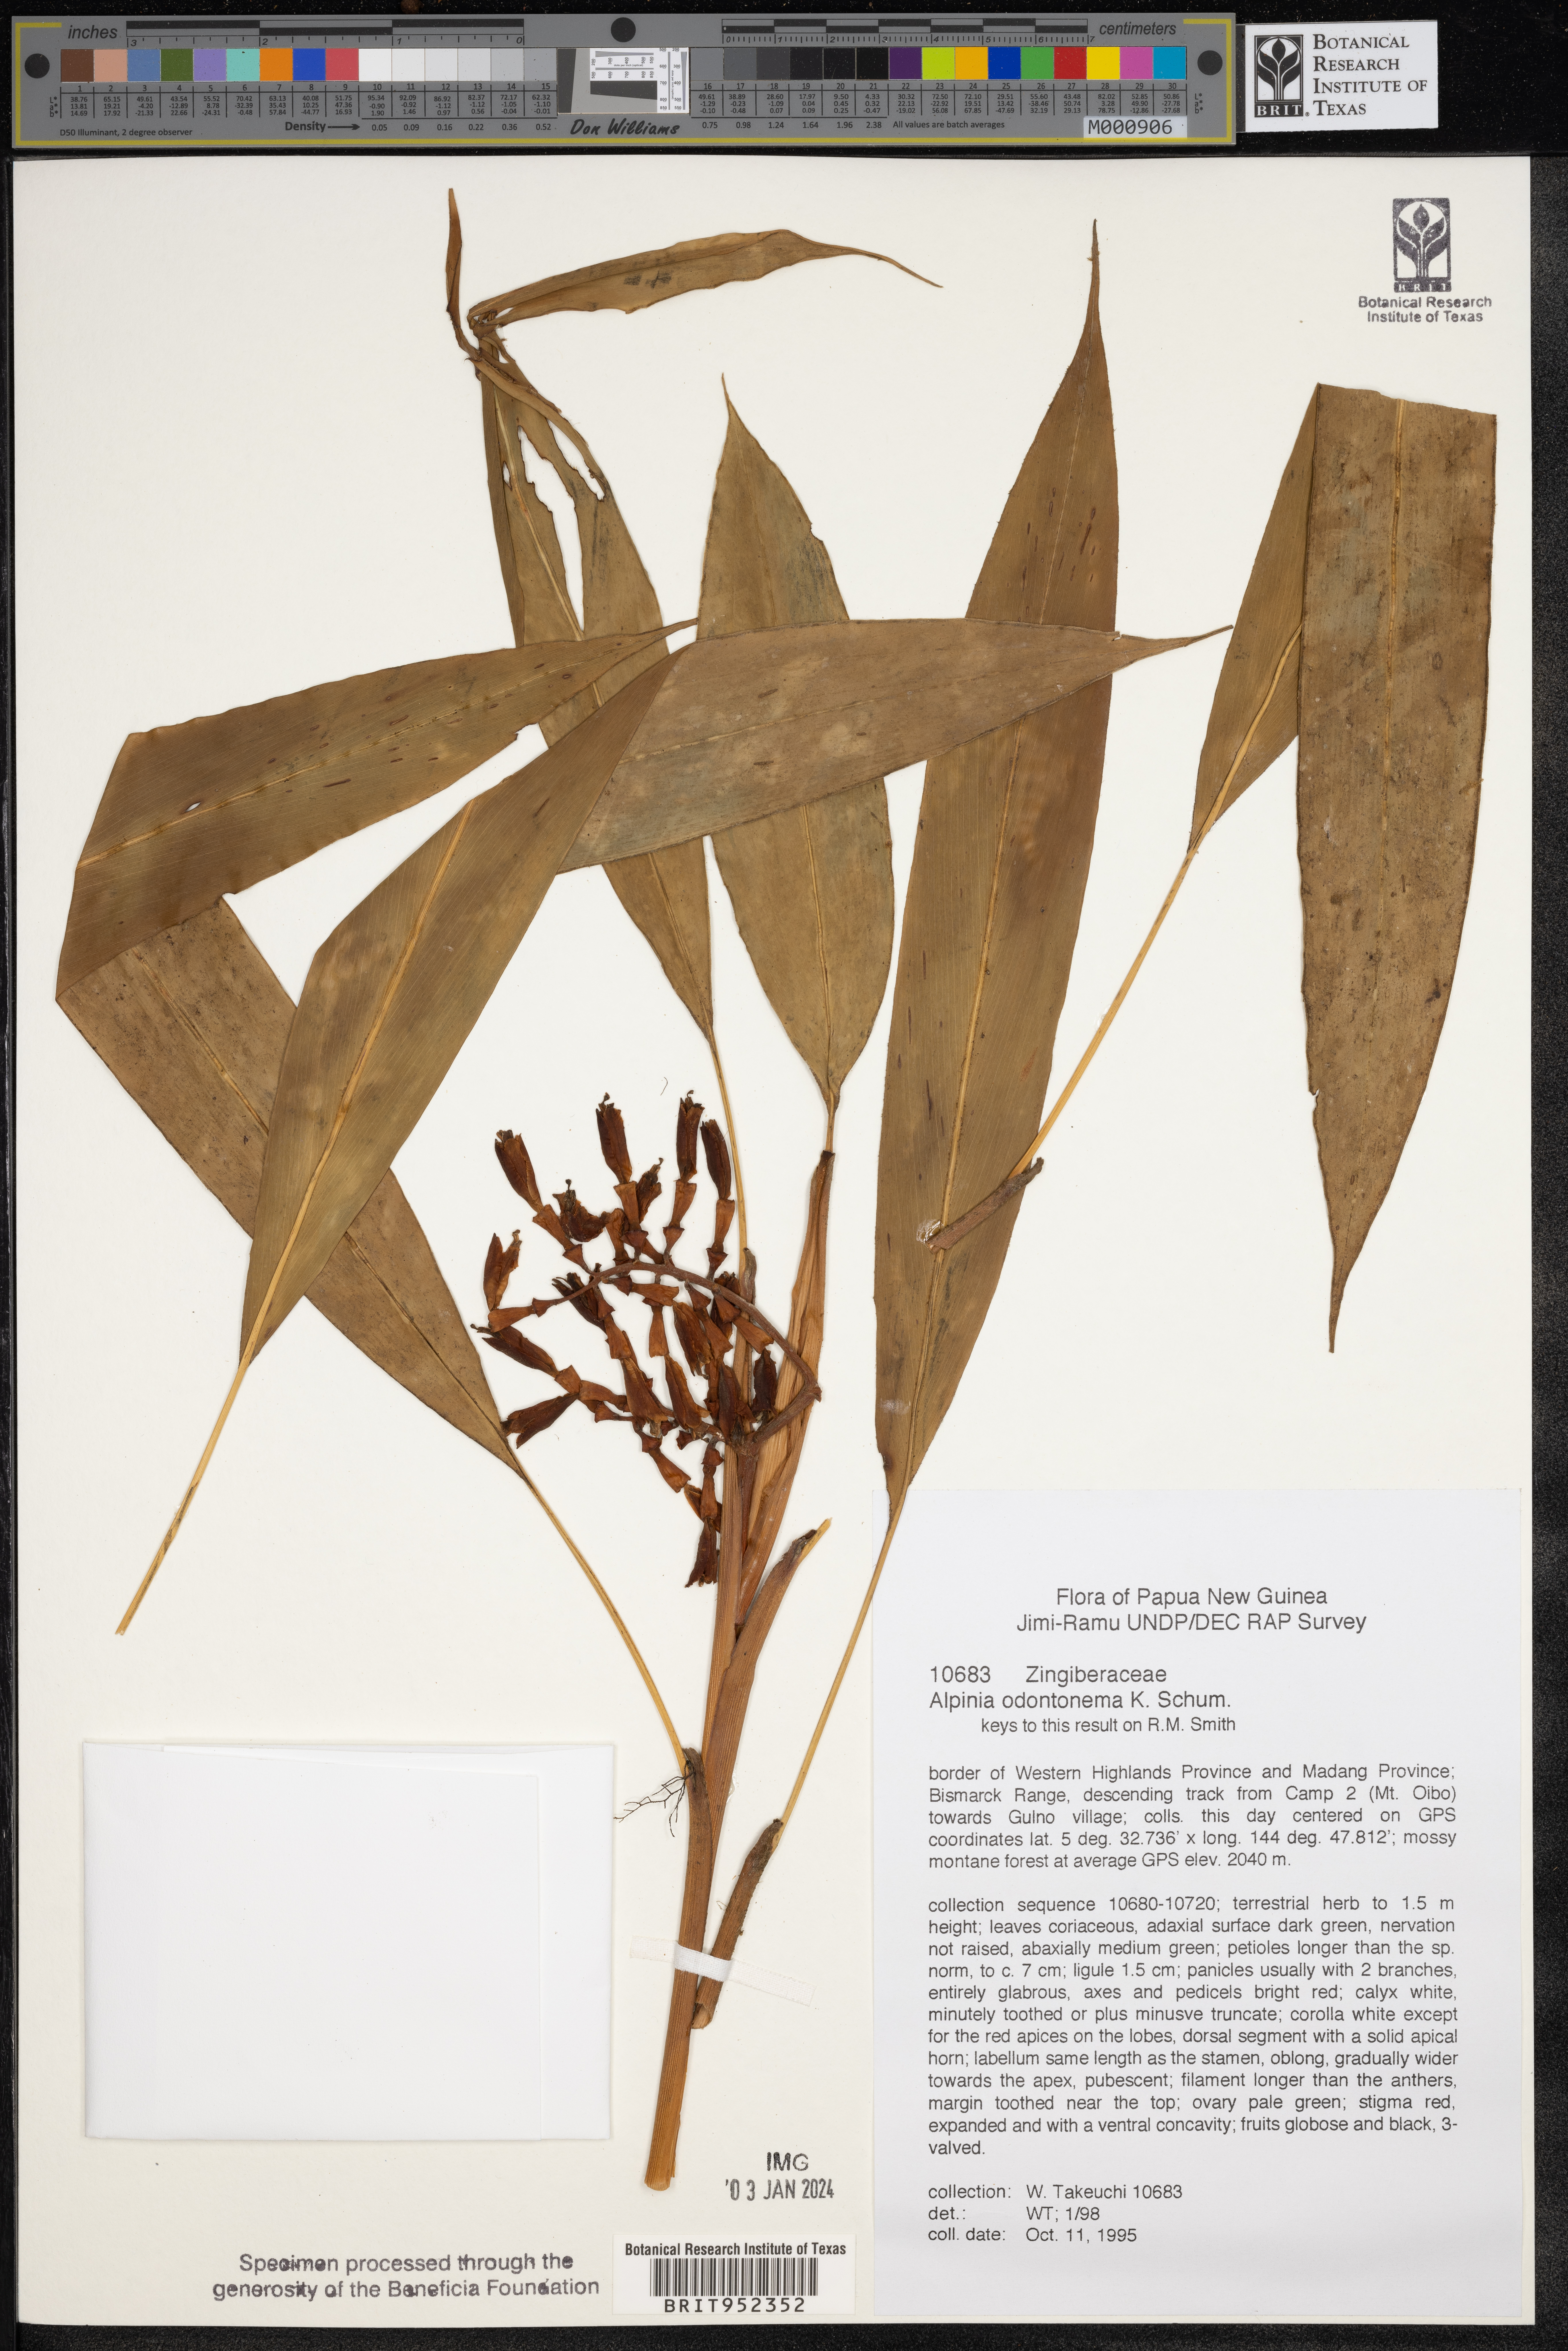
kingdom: Plantae
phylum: Tracheophyta
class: Liliopsida
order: Zingiberales
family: Zingiberaceae
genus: Alpinia
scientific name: Alpinia
